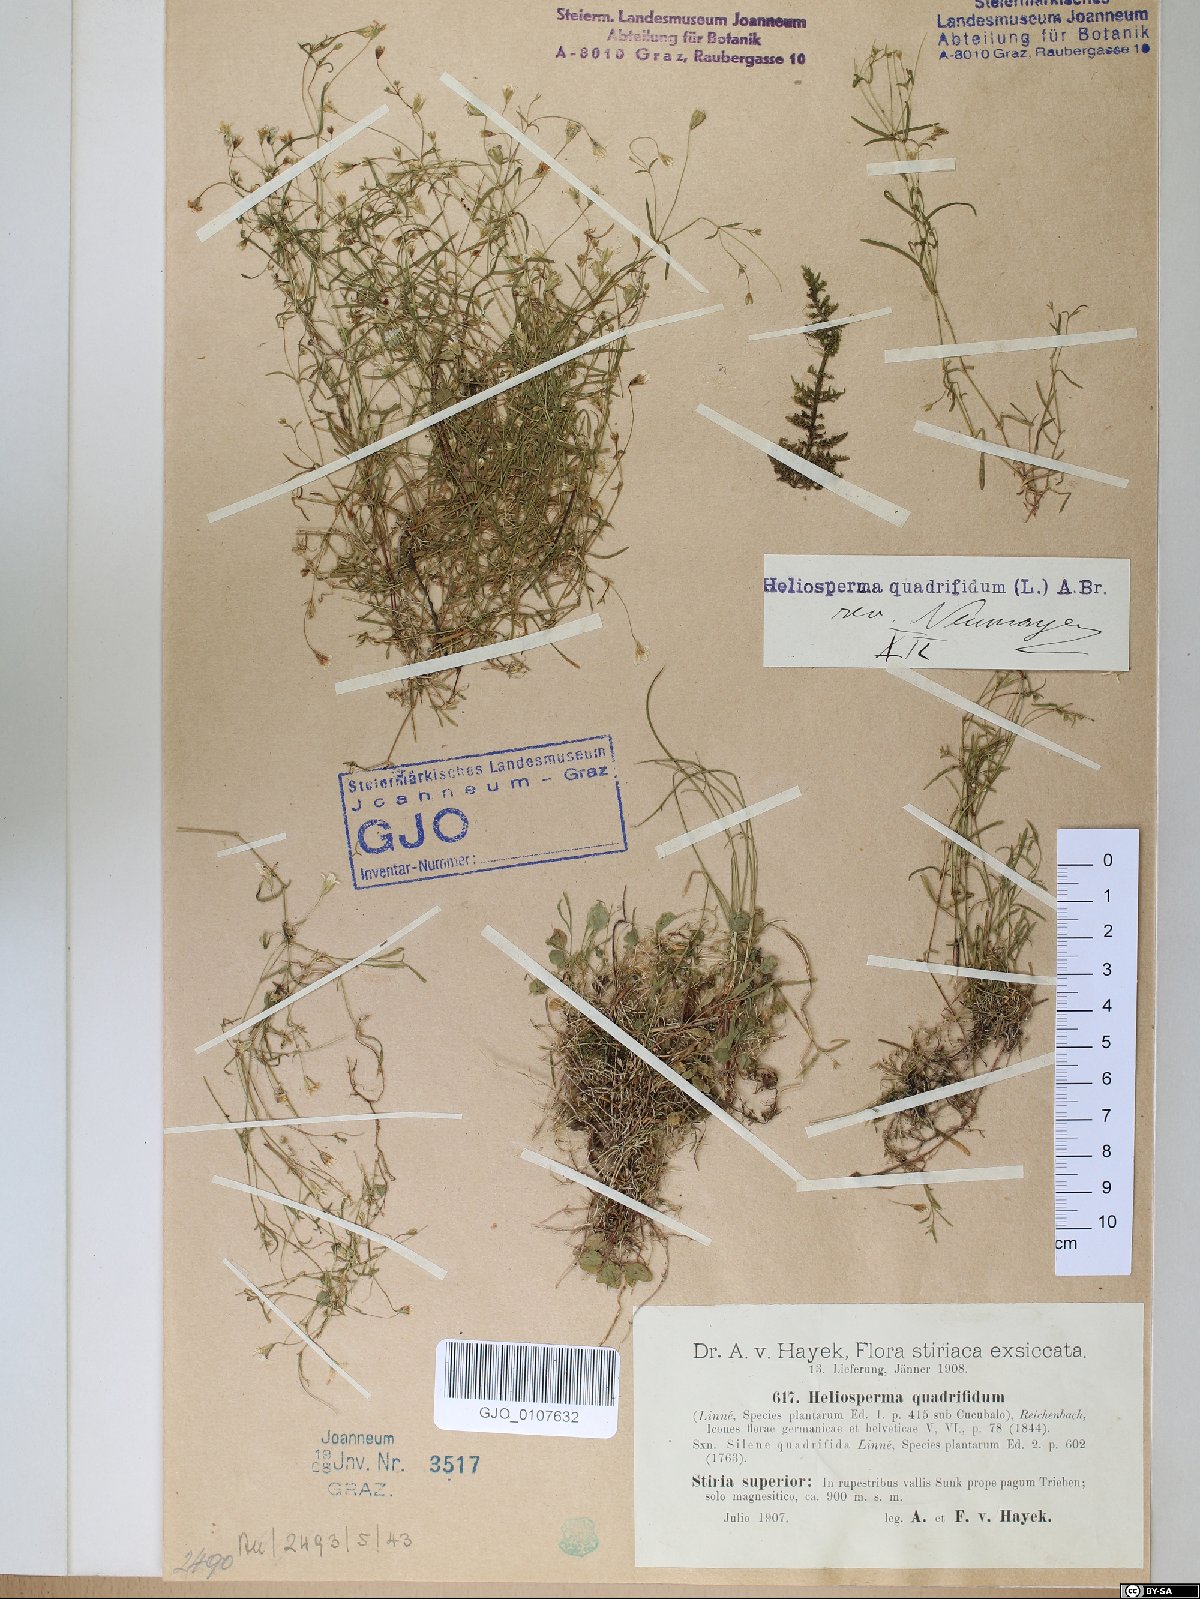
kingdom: Plantae
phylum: Tracheophyta
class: Magnoliopsida
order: Caryophyllales
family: Caryophyllaceae
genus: Heliosperma
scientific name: Heliosperma alpestre
